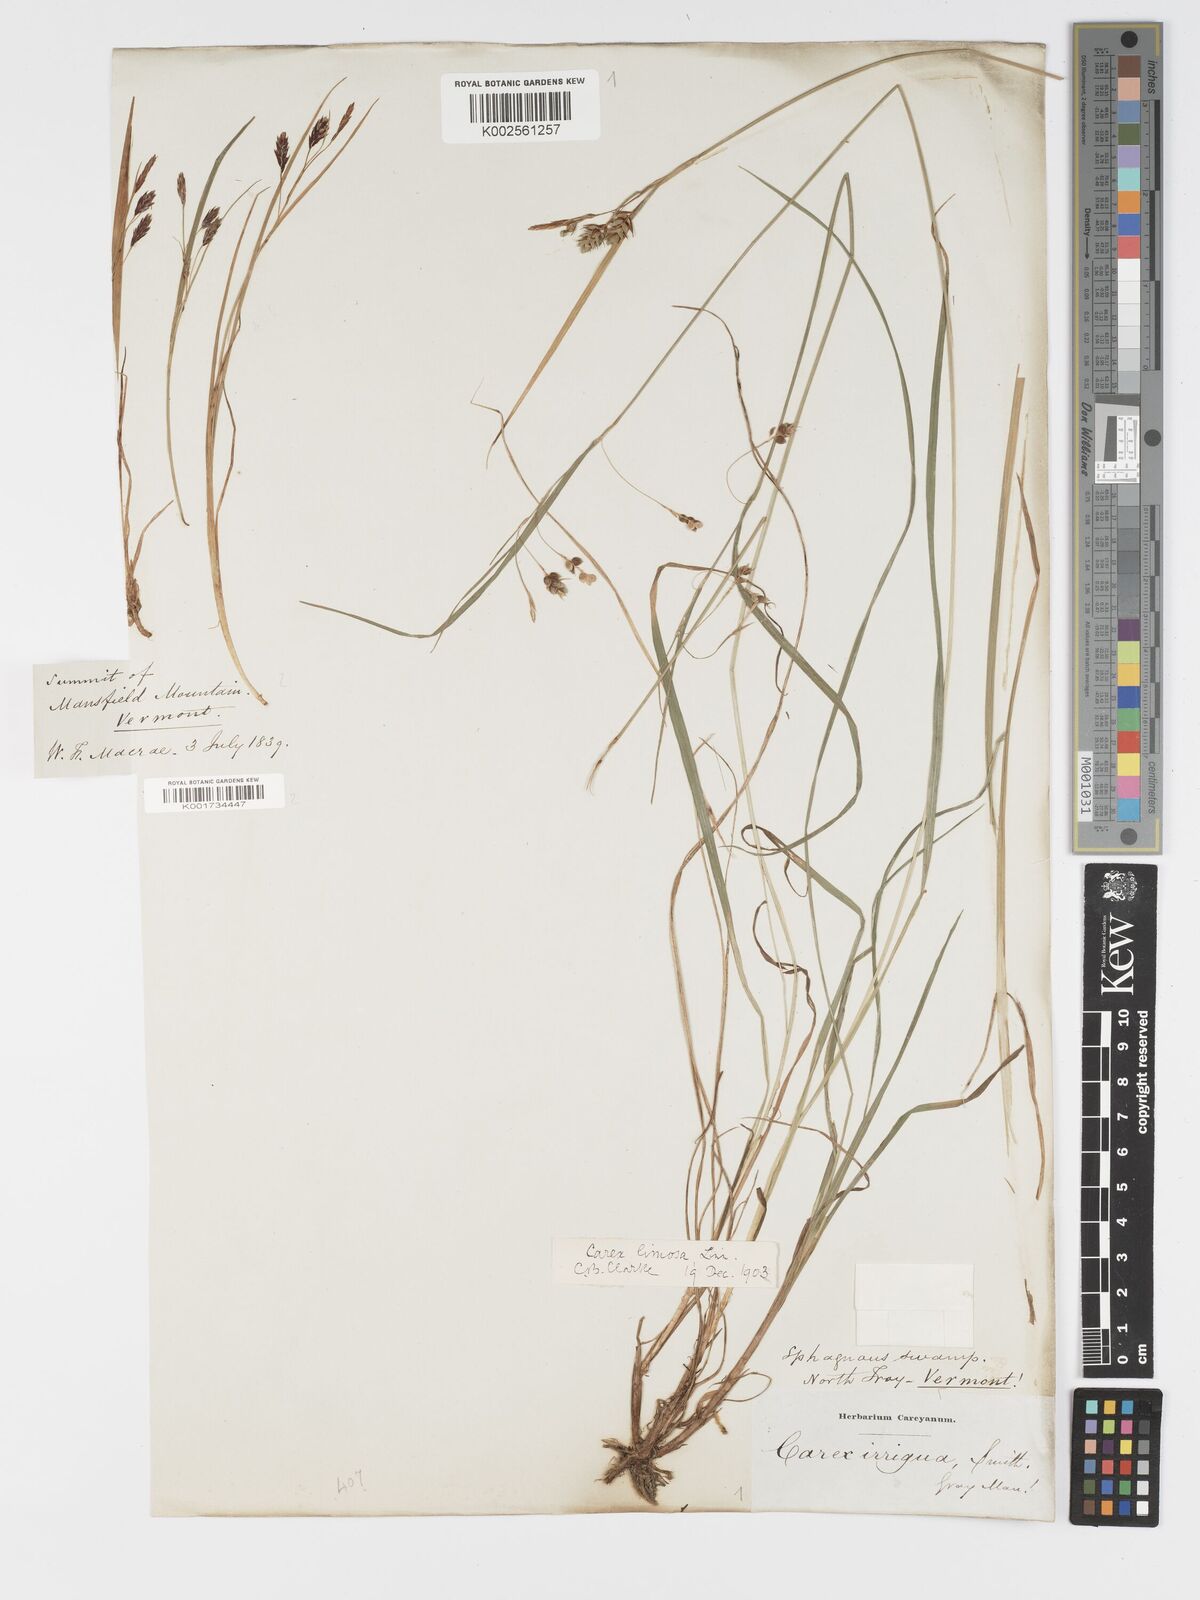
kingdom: Plantae
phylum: Tracheophyta
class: Liliopsida
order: Poales
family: Cyperaceae
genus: Carex
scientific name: Carex limosa
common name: Bog sedge
